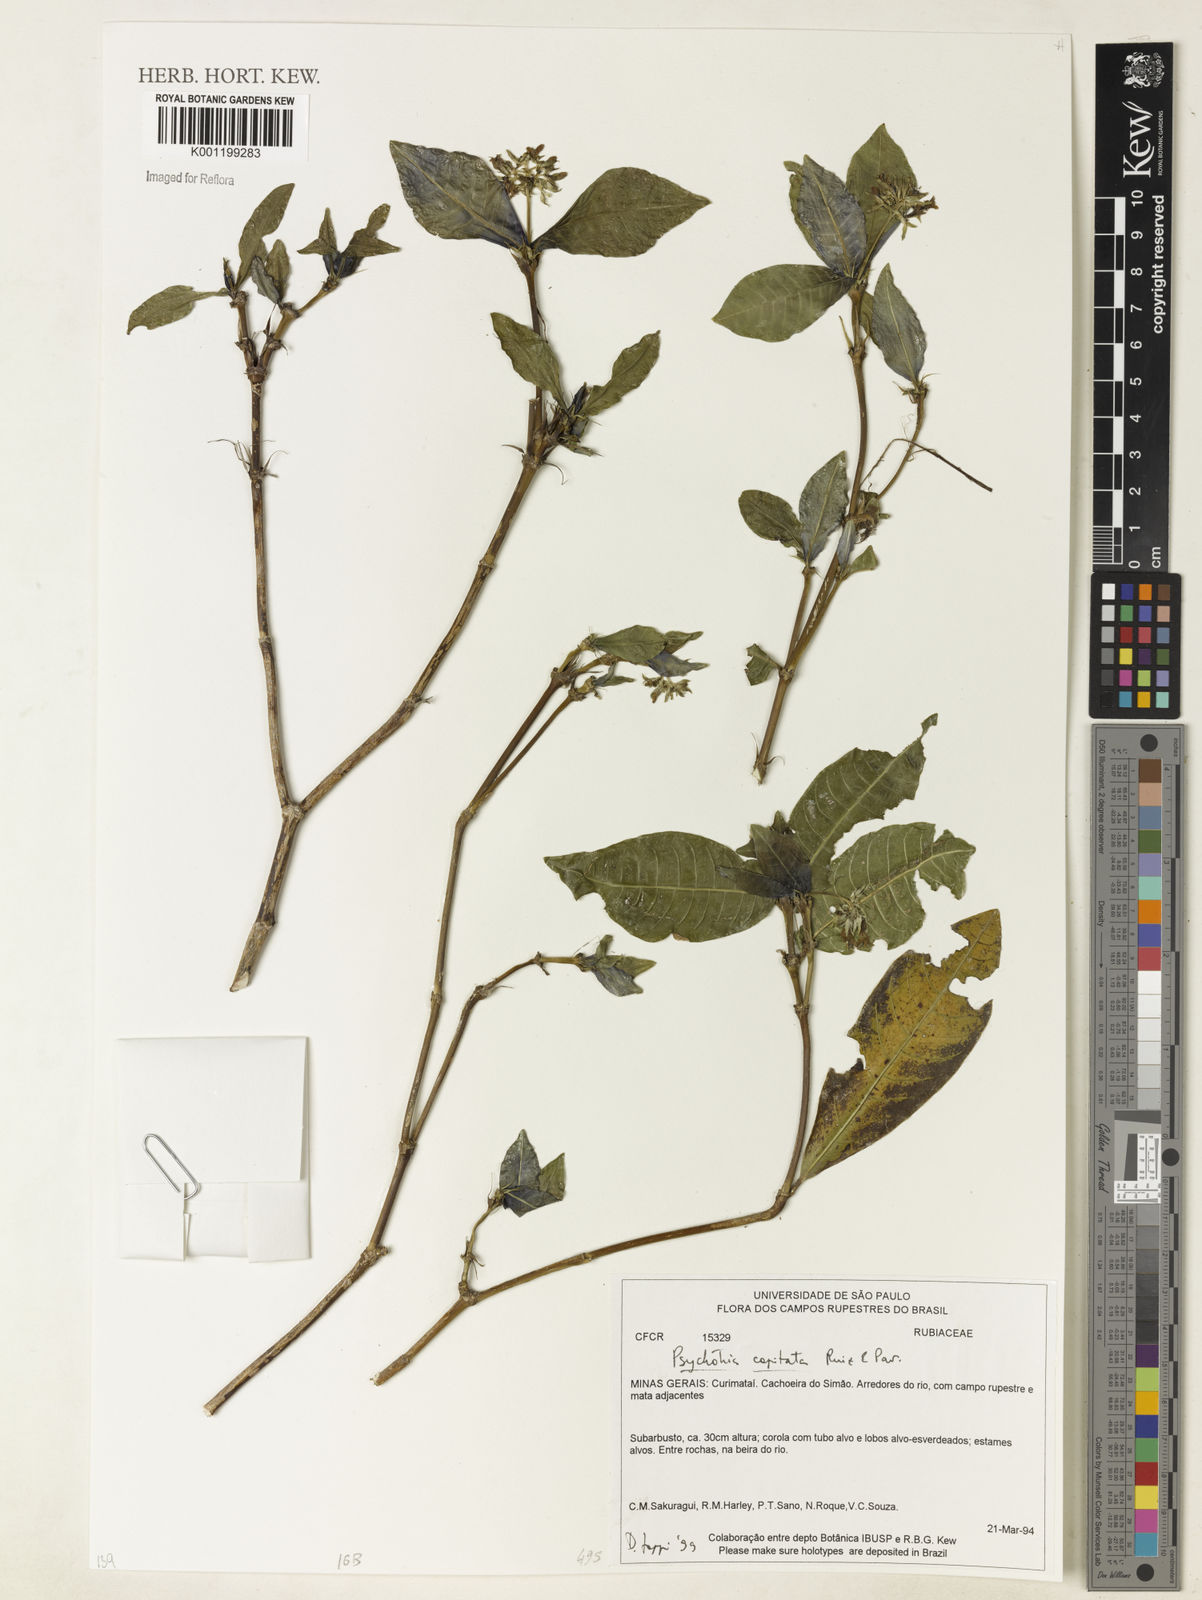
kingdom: Plantae
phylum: Tracheophyta
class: Magnoliopsida
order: Gentianales
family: Rubiaceae
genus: Palicourea
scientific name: Palicourea violacea
